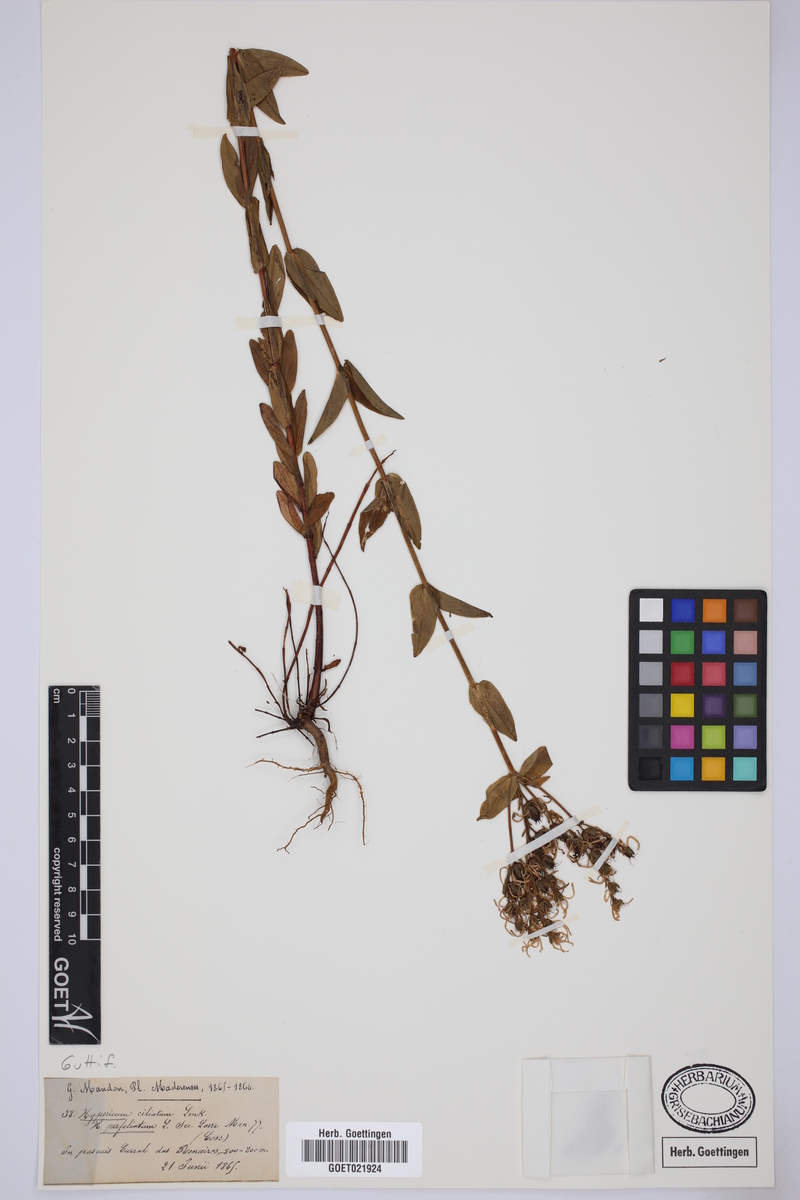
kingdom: Plantae
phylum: Tracheophyta
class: Magnoliopsida
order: Malpighiales
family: Hypericaceae
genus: Hypericum
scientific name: Hypericum perfoliatum
